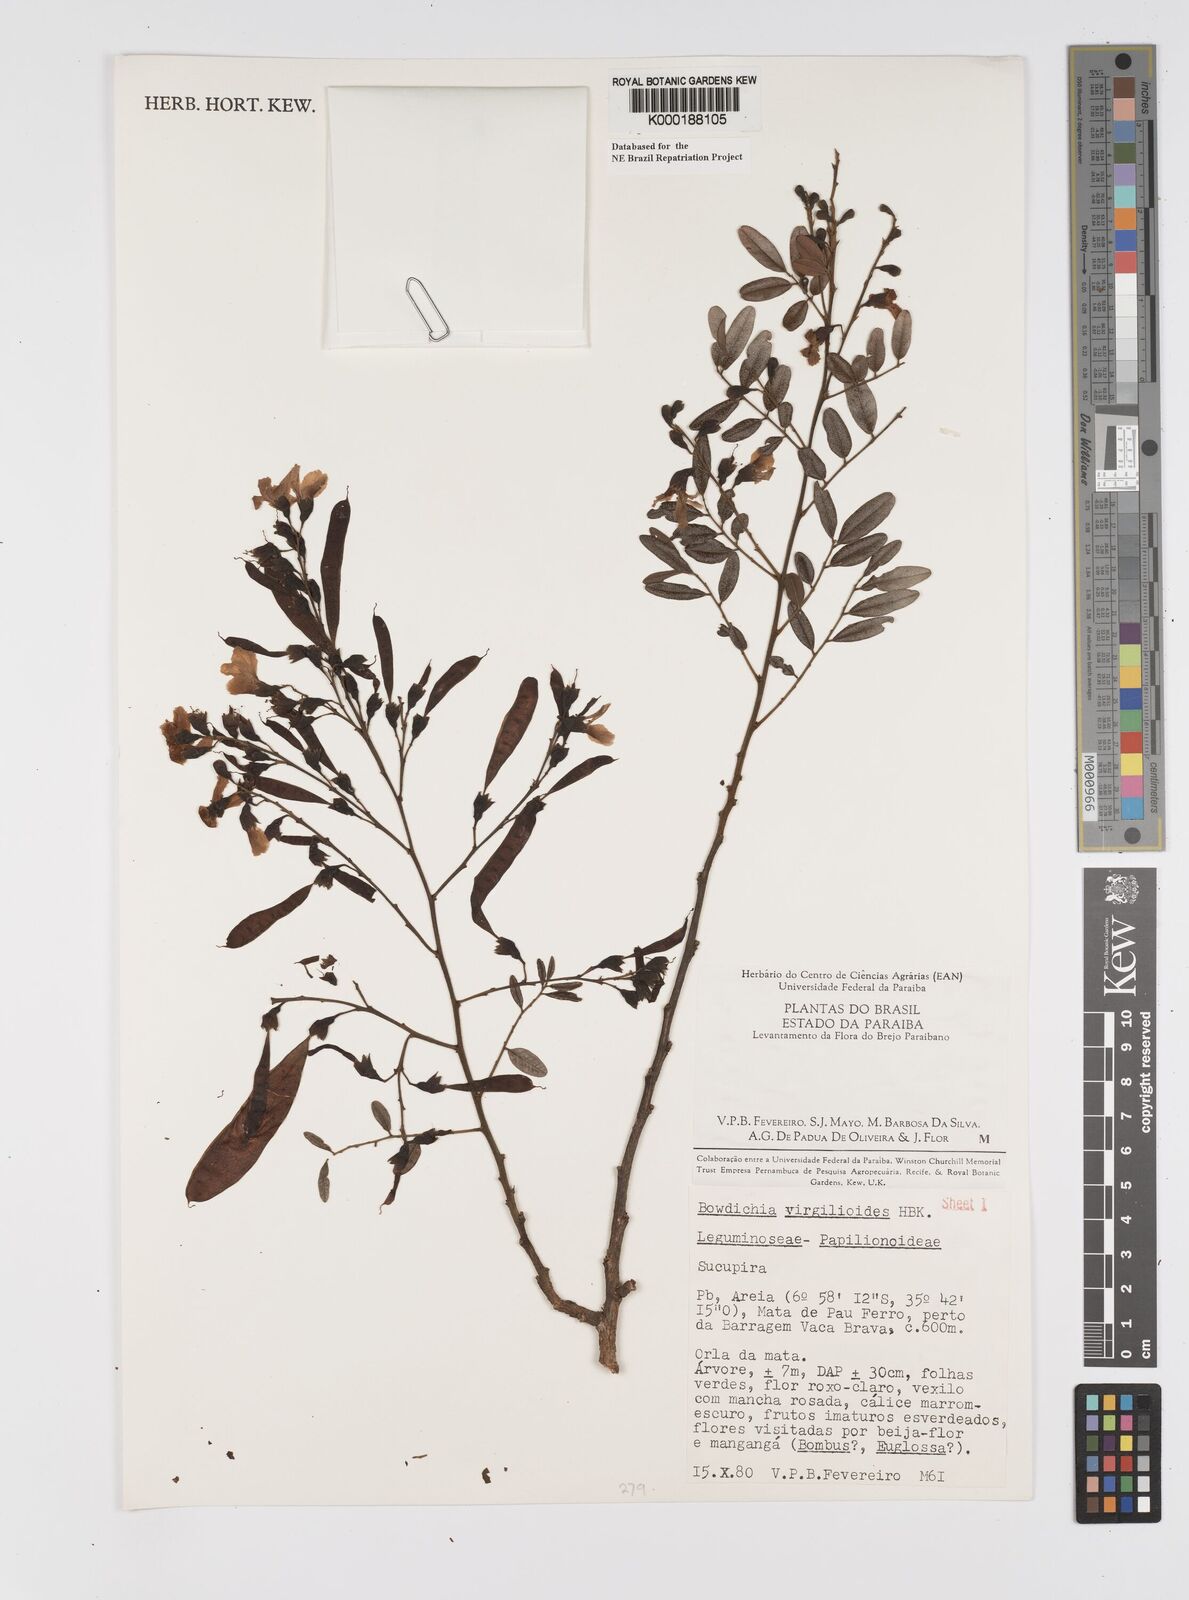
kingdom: Plantae
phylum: Tracheophyta
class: Magnoliopsida
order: Fabales
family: Fabaceae
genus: Bowdichia
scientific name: Bowdichia virgilioides
